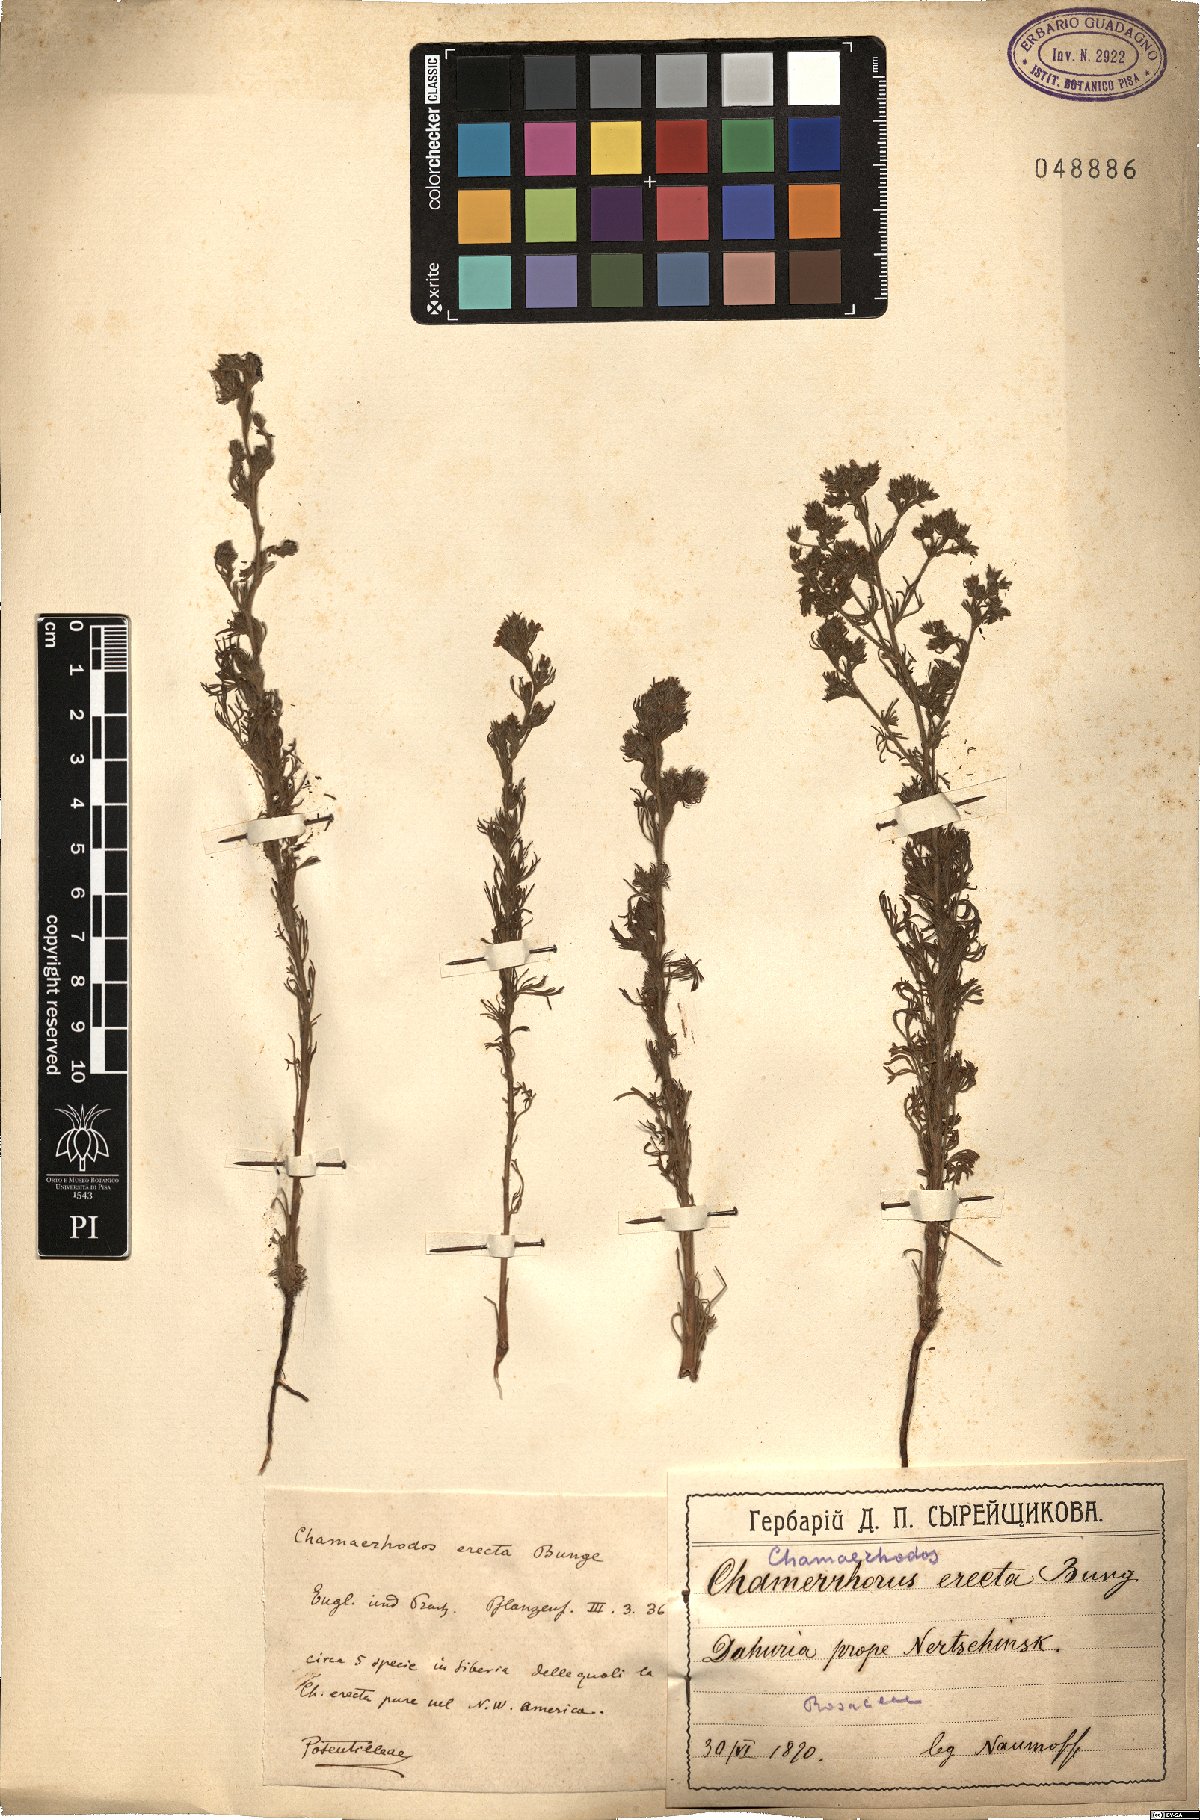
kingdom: Plantae
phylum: Tracheophyta
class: Magnoliopsida
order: Rosales
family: Rosaceae
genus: Chamaerhodos
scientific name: Chamaerhodos erecta
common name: American chamaerhodos
